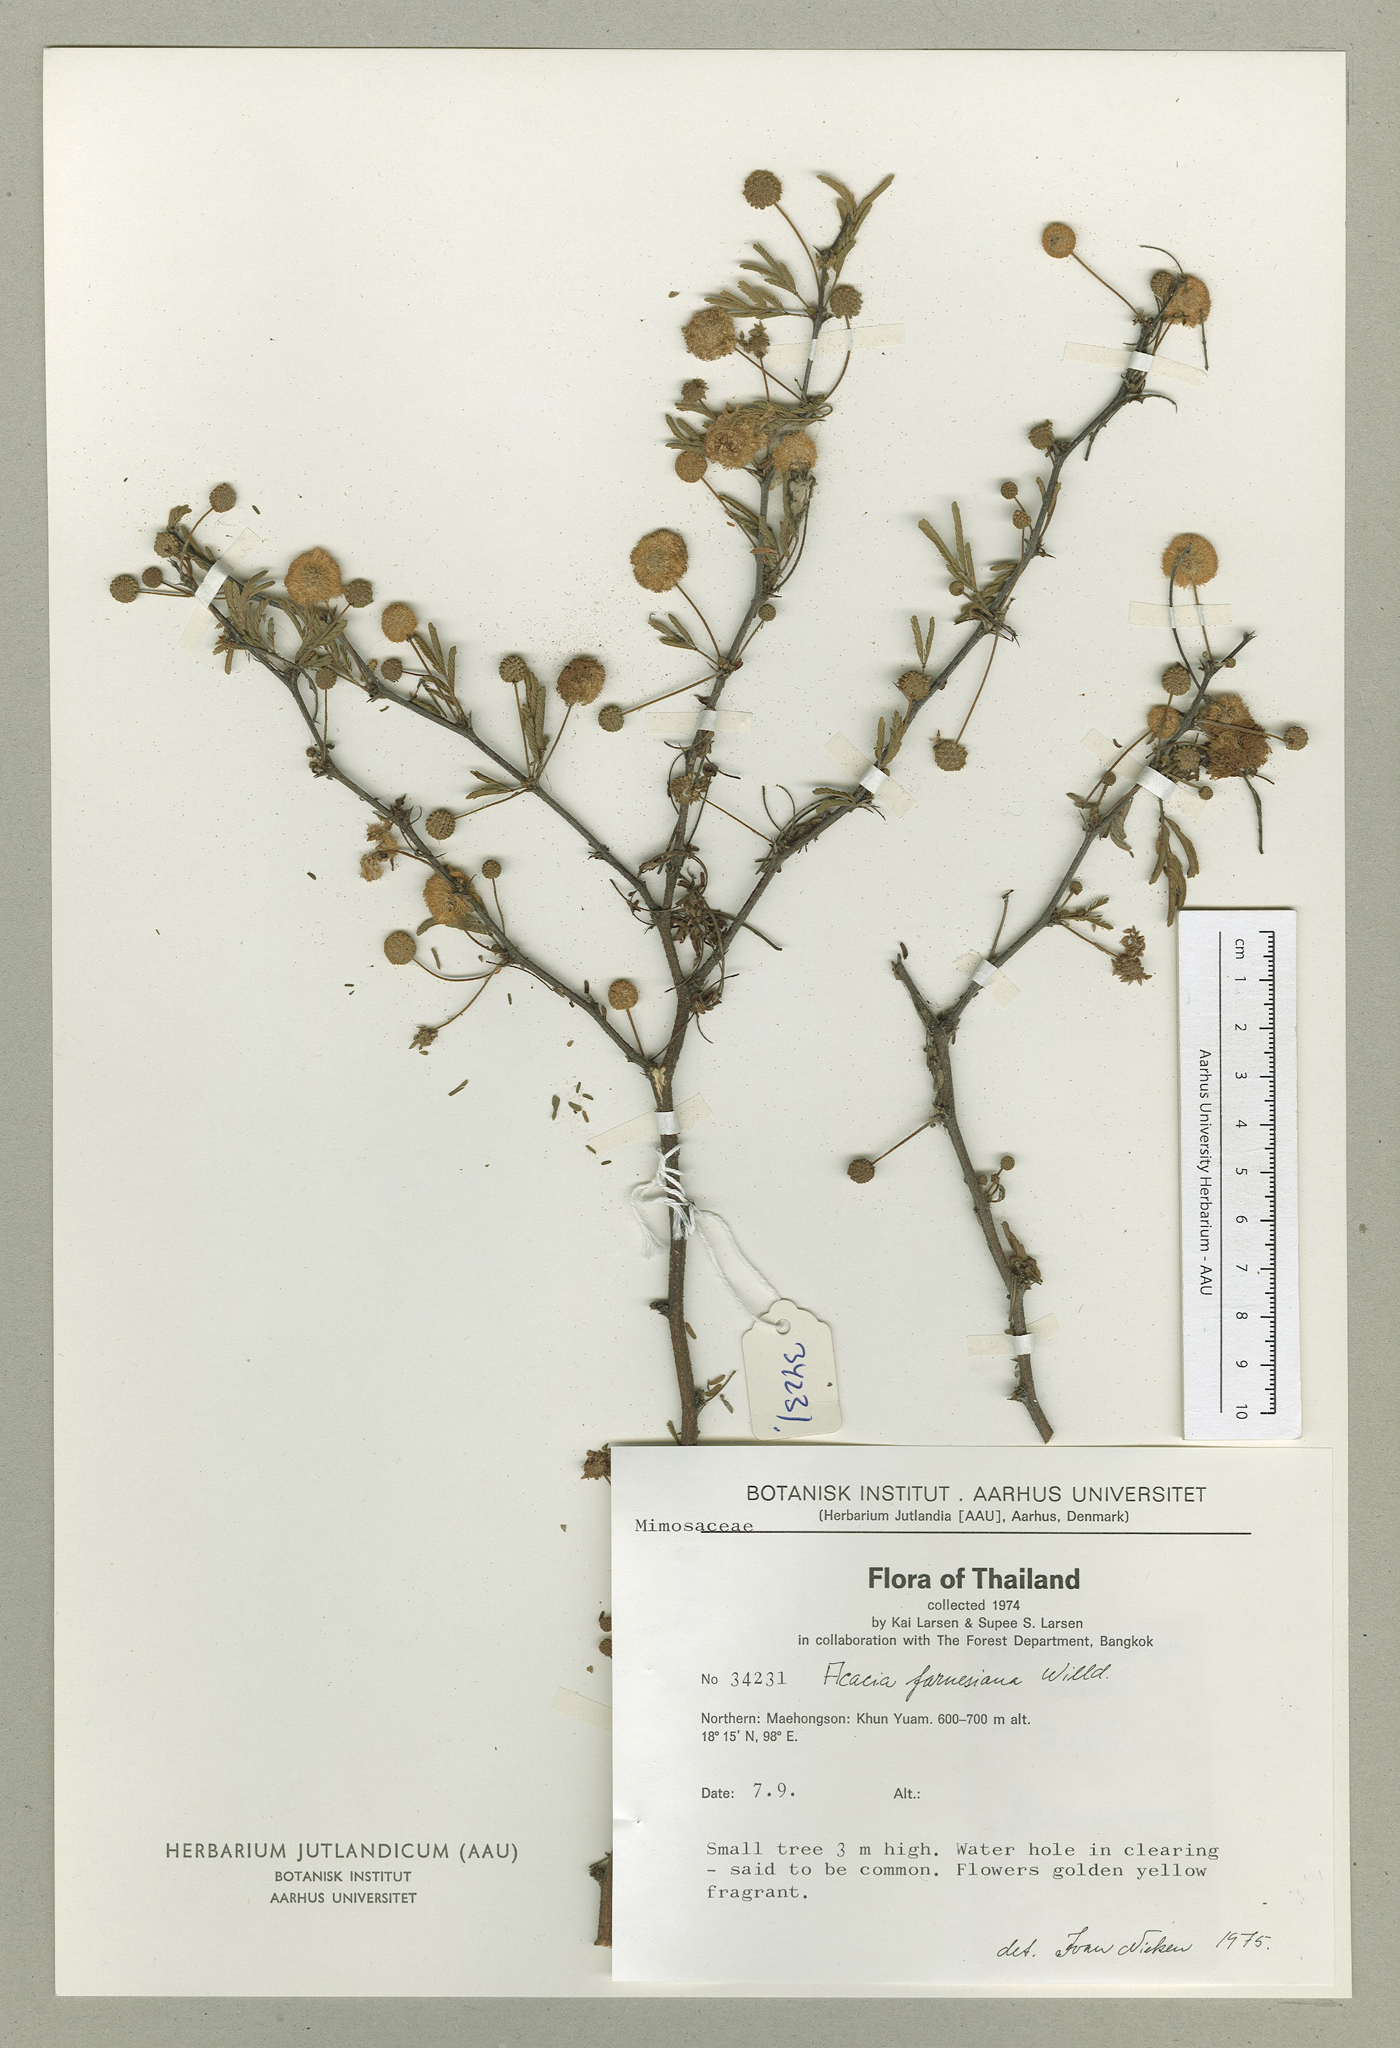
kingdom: Plantae
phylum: Tracheophyta
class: Magnoliopsida
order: Fabales
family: Fabaceae
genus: Vachellia
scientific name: Vachellia farnesiana
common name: Sweet acacia
